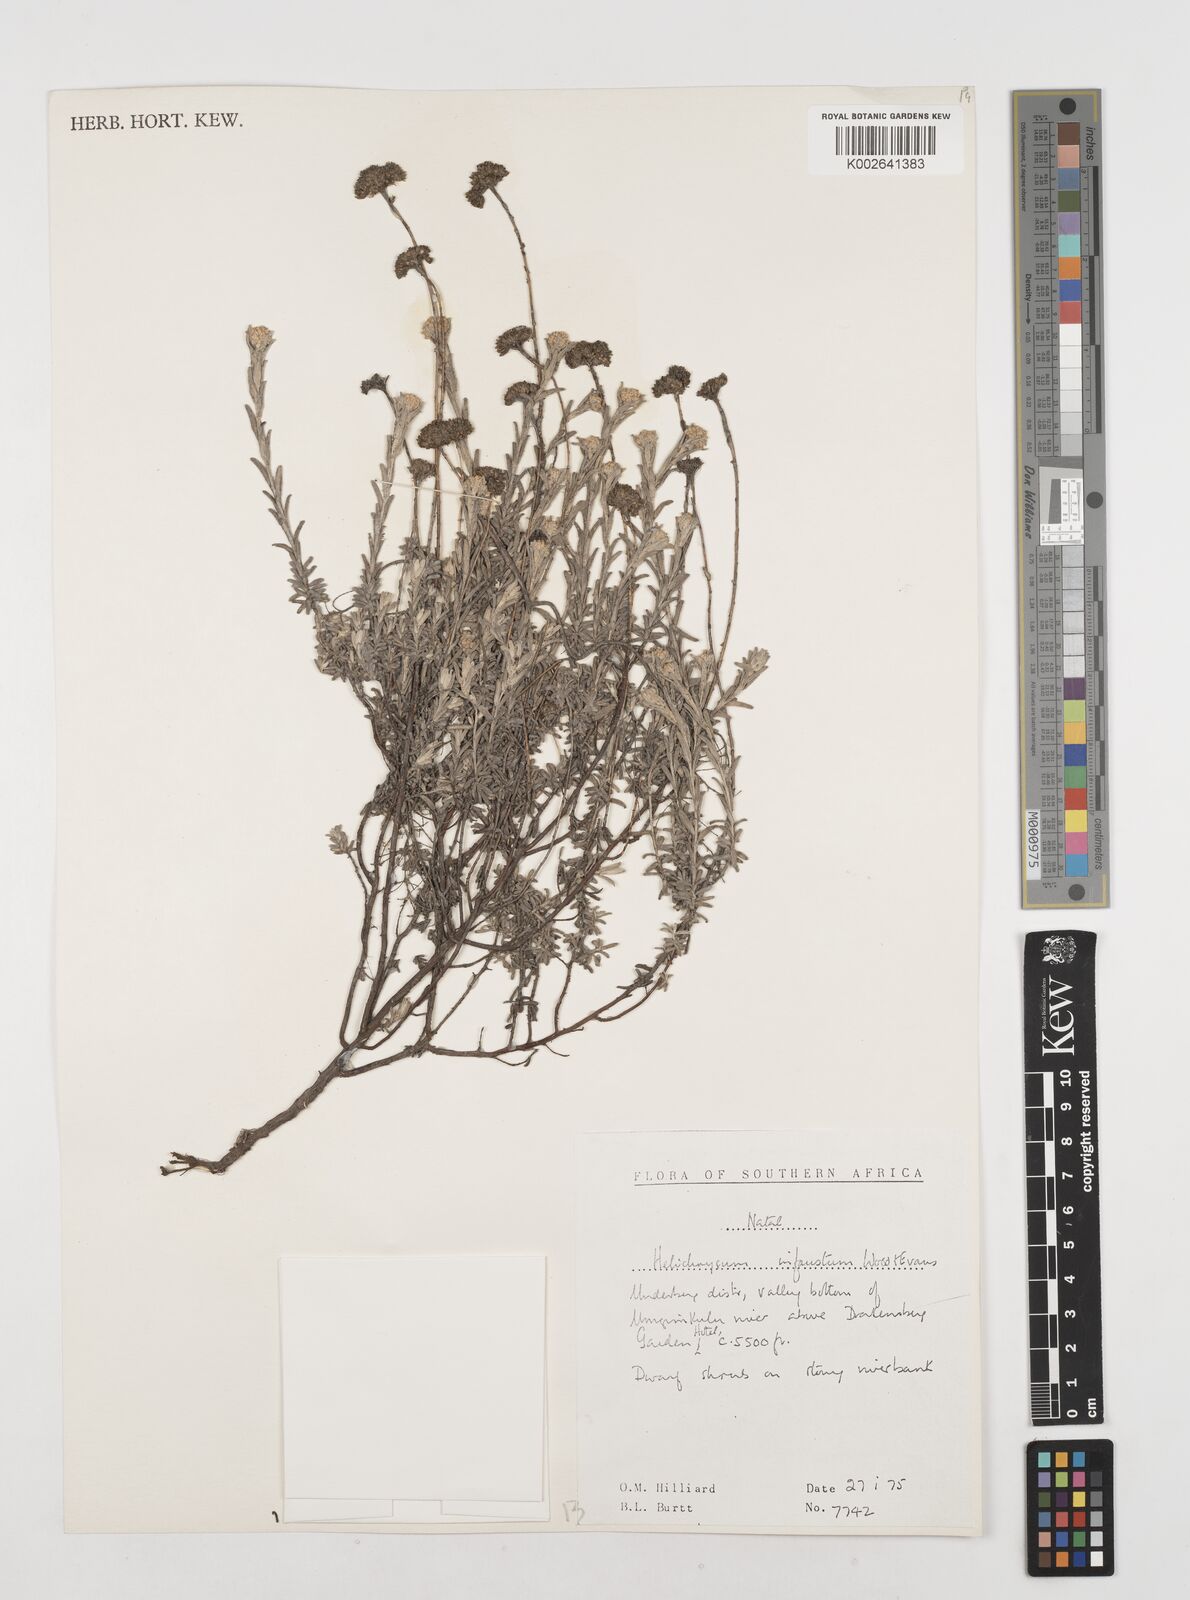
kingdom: Plantae
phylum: Tracheophyta
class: Magnoliopsida
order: Asterales
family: Asteraceae
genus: Calomeria
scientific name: Calomeria infausta
